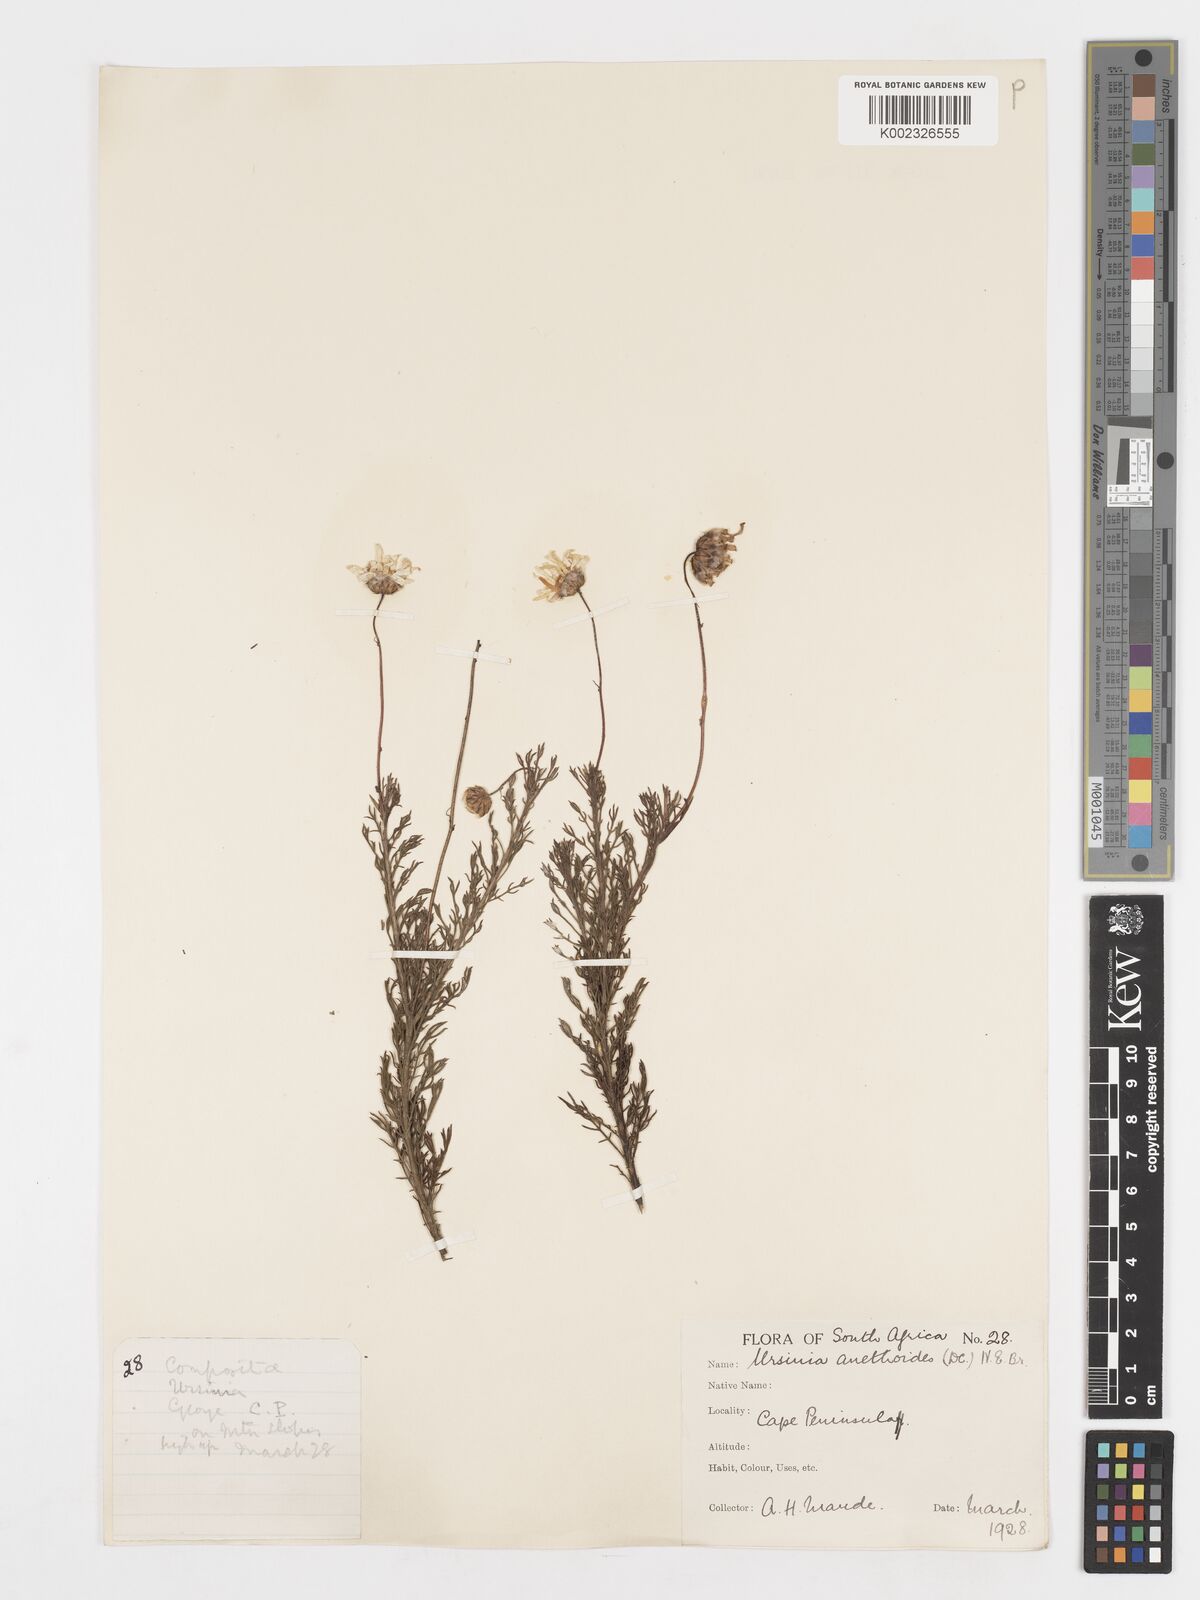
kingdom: Plantae
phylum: Tracheophyta
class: Magnoliopsida
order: Asterales
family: Asteraceae
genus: Ursinia
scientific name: Ursinia anethoides
